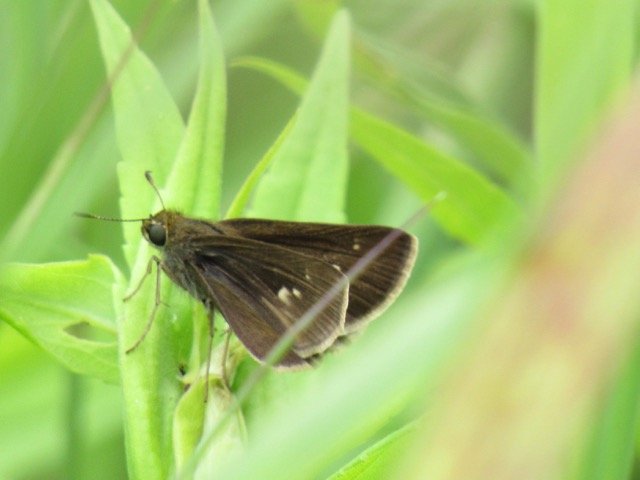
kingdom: Animalia
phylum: Arthropoda
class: Insecta
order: Lepidoptera
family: Hesperiidae
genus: Vernia
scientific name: Vernia verna
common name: Little Glassywing
